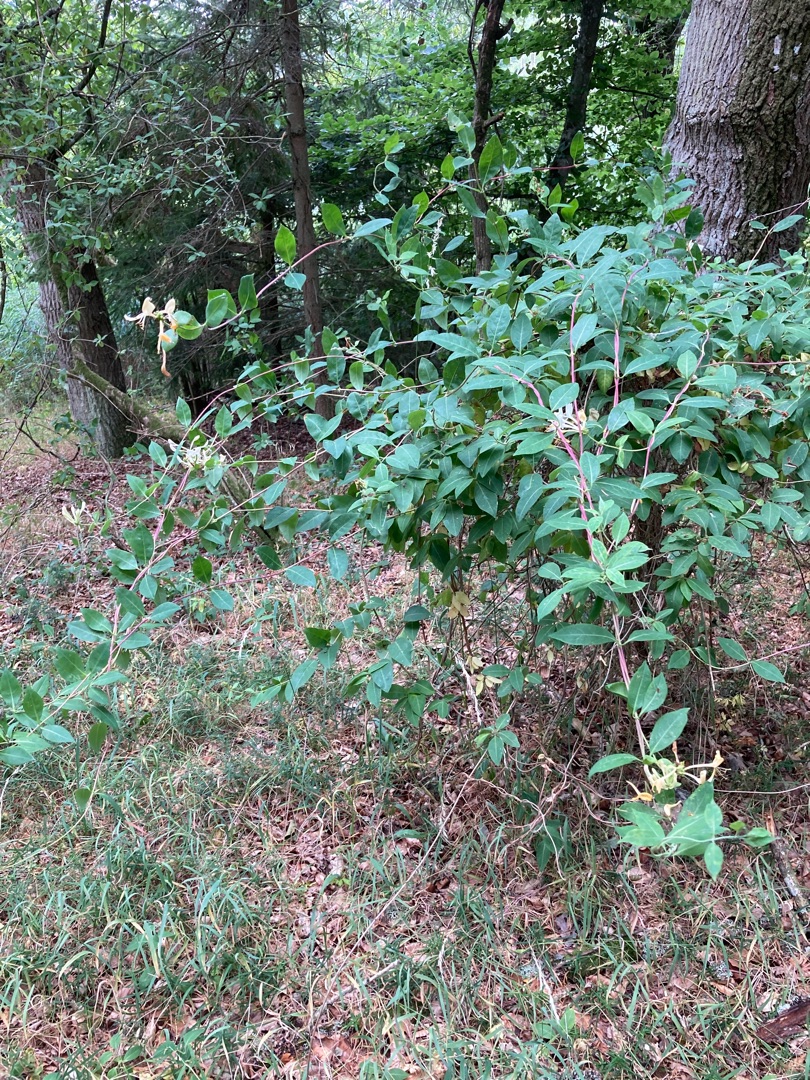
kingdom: Plantae
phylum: Tracheophyta
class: Magnoliopsida
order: Dipsacales
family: Caprifoliaceae
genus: Lonicera
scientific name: Lonicera periclymenum
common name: Almindelig gedeblad
